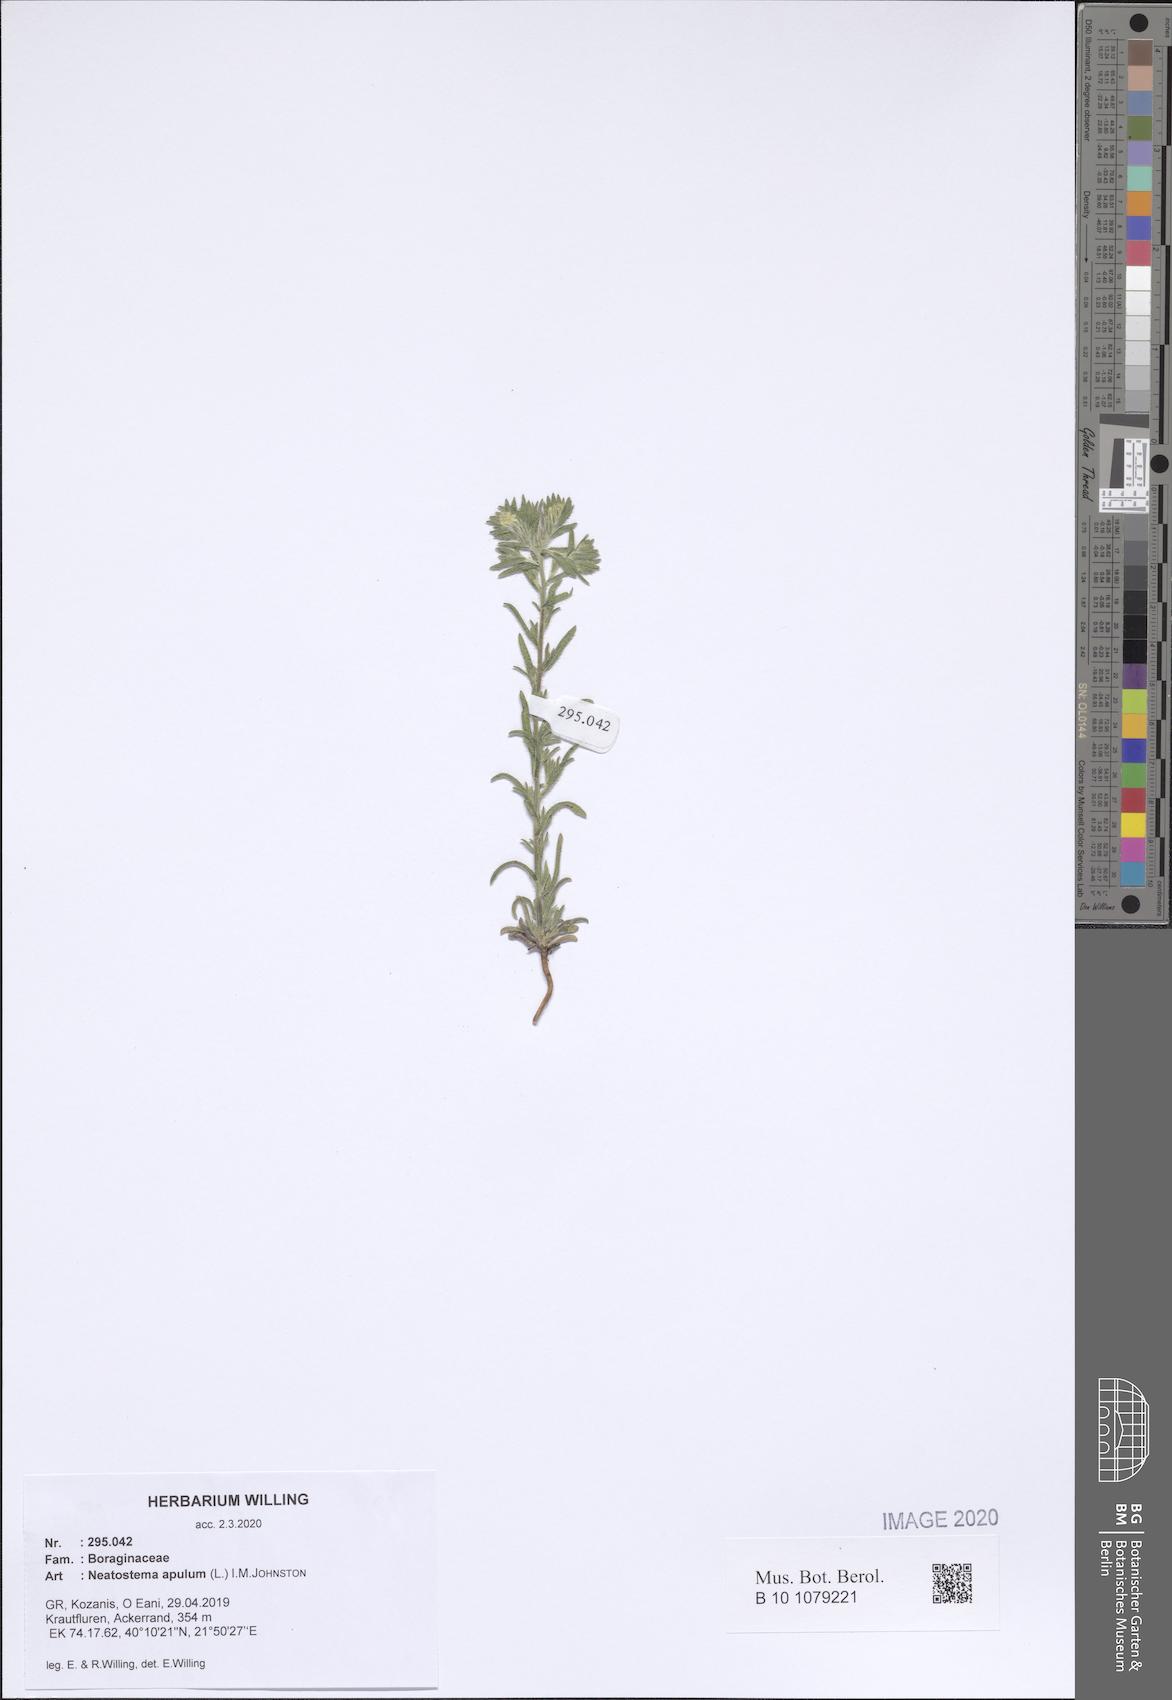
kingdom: Plantae
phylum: Tracheophyta
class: Magnoliopsida
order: Boraginales
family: Boraginaceae
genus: Neatostema
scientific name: Neatostema apulum
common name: Hairy sheepweed
